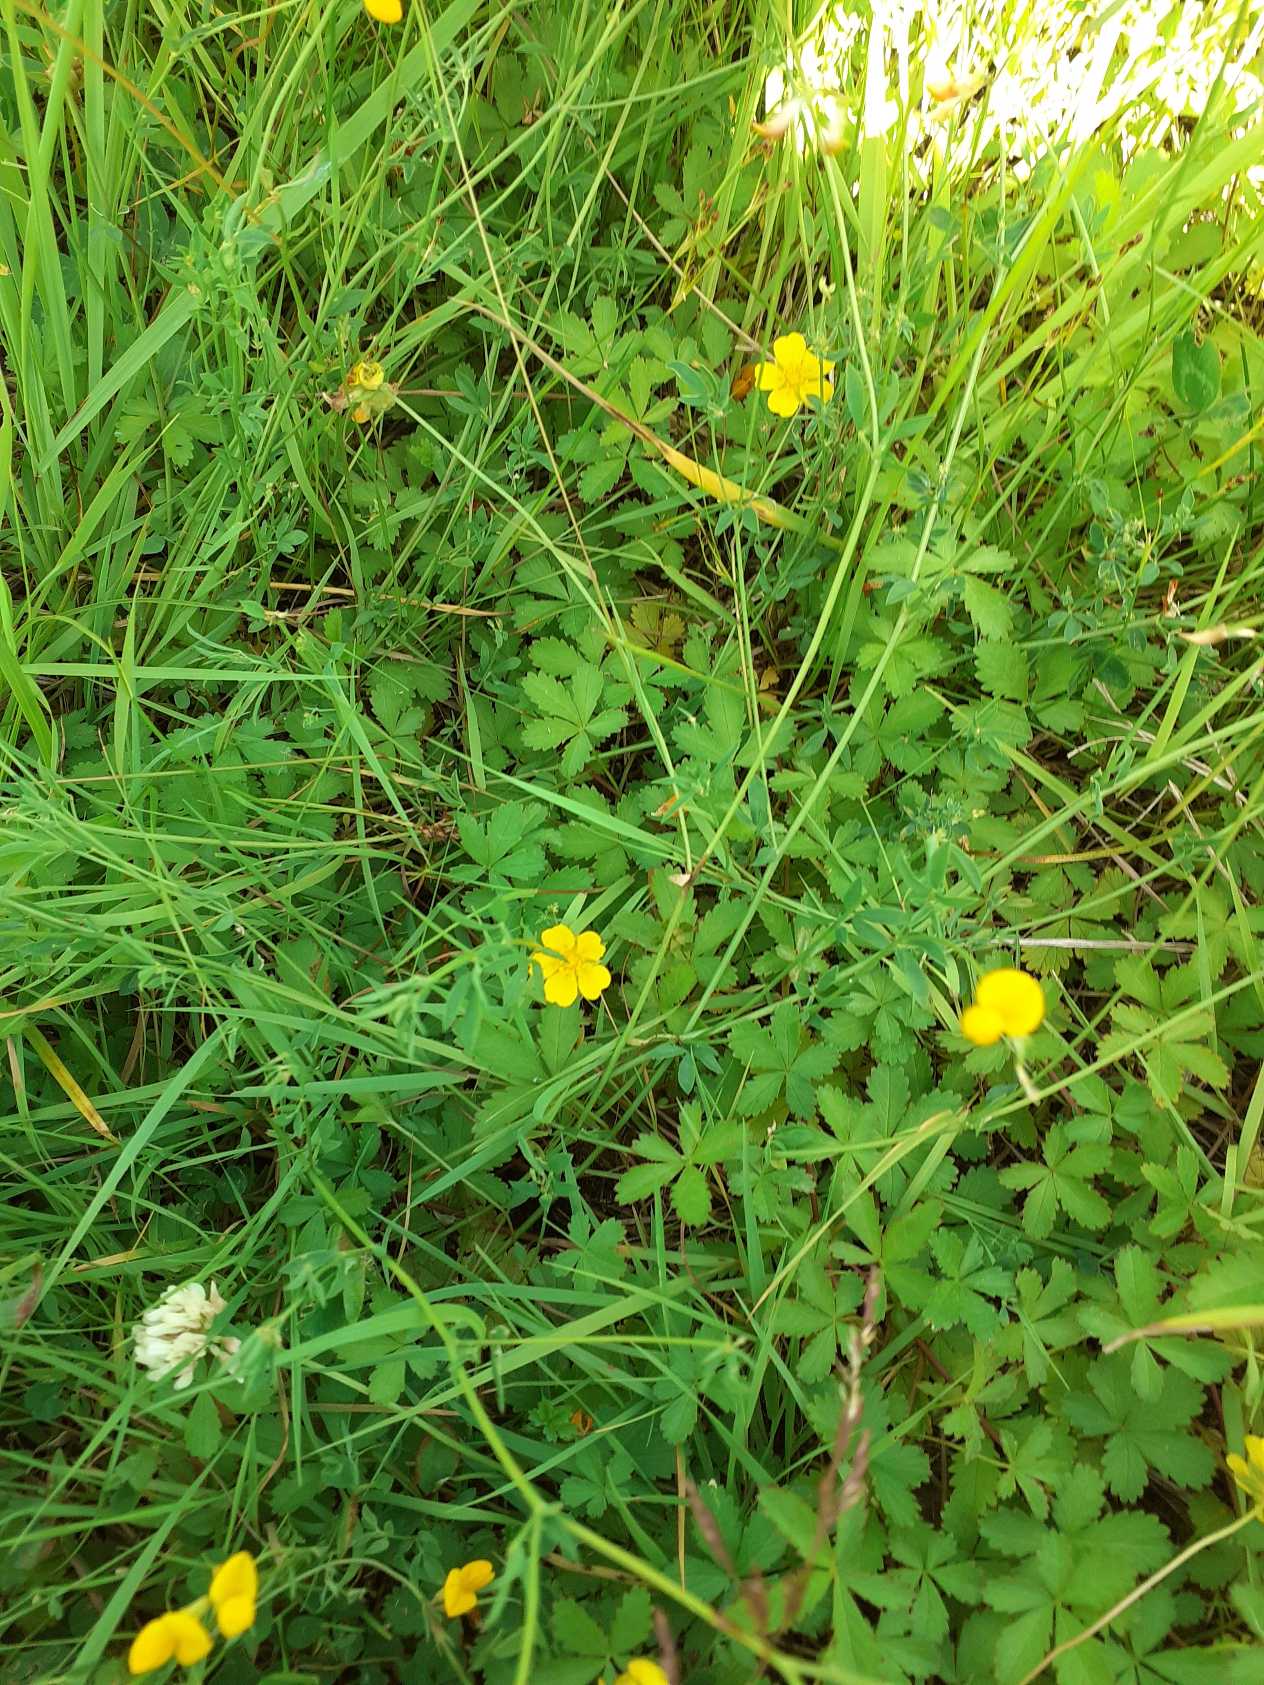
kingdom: Plantae
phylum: Tracheophyta
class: Magnoliopsida
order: Rosales
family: Rosaceae
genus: Potentilla
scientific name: Potentilla reptans
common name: Krybende potentil
